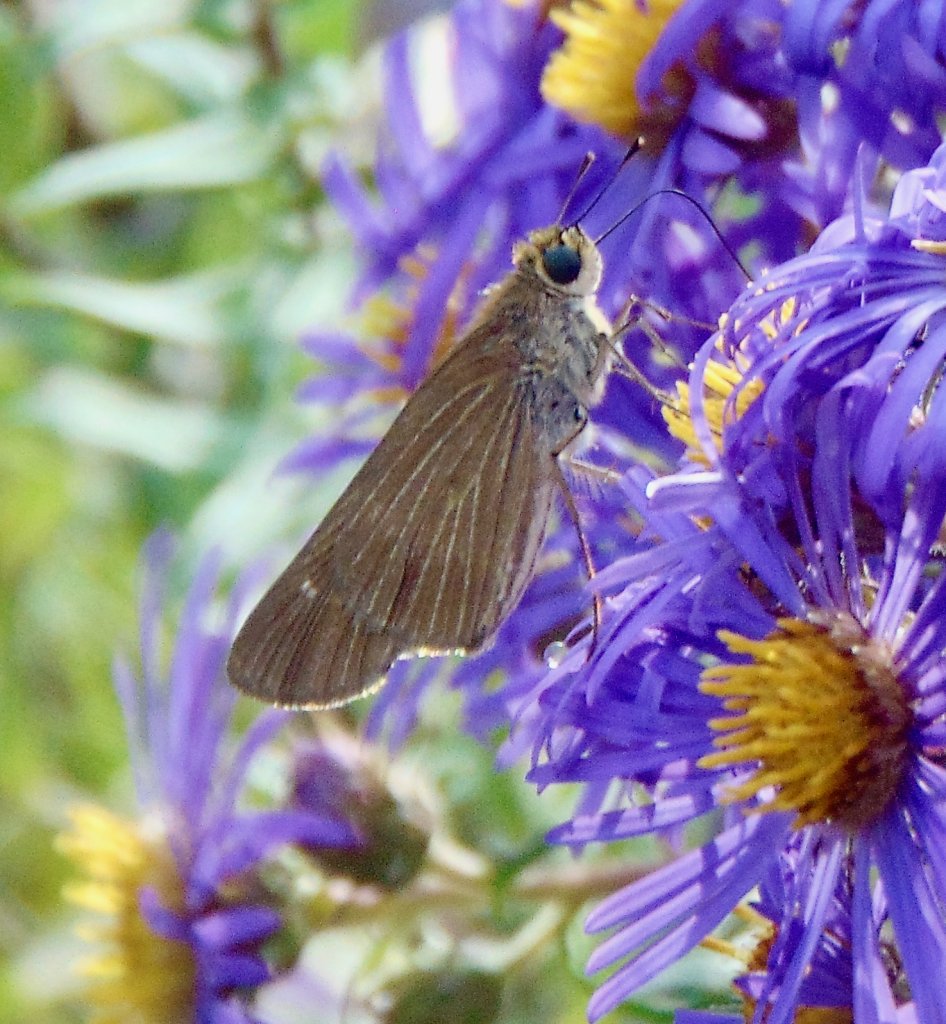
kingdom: Animalia
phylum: Arthropoda
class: Insecta
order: Lepidoptera
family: Hesperiidae
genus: Panoquina
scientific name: Panoquina ocola
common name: Ocola Skipper
